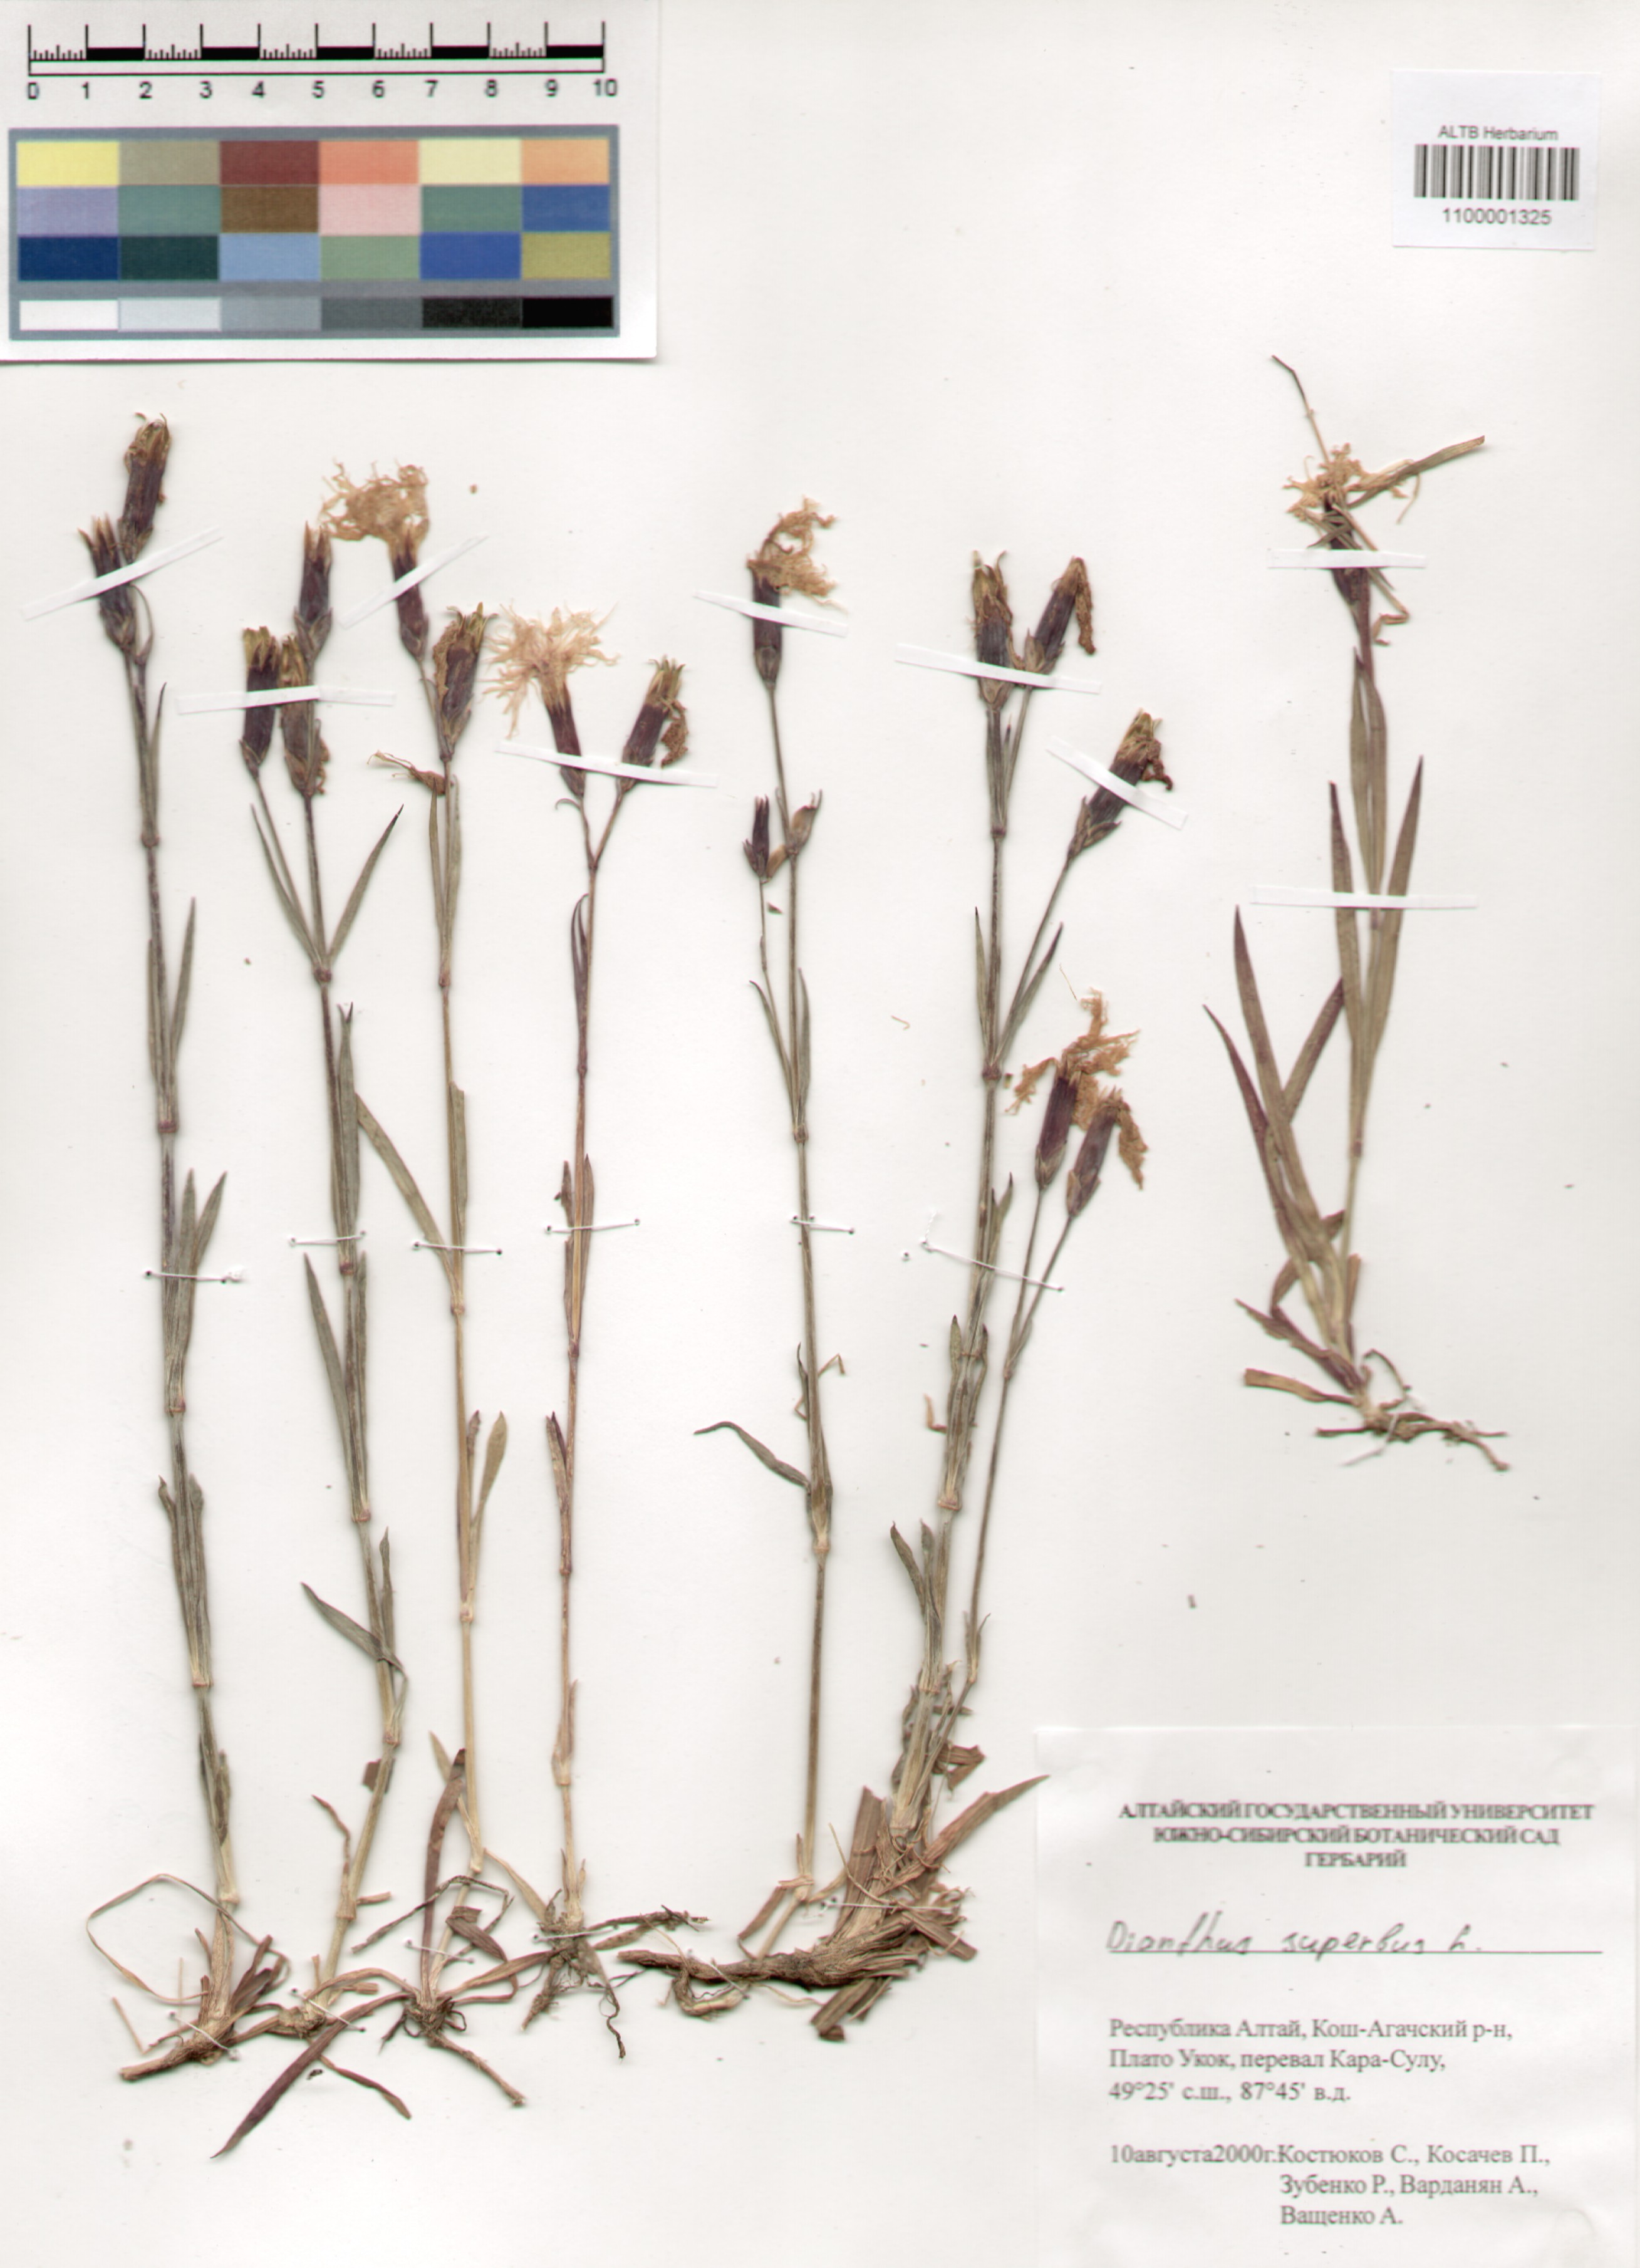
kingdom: Plantae
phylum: Tracheophyta
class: Magnoliopsida
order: Caryophyllales
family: Caryophyllaceae
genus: Dianthus
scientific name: Dianthus superbus
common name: Fringed pink
